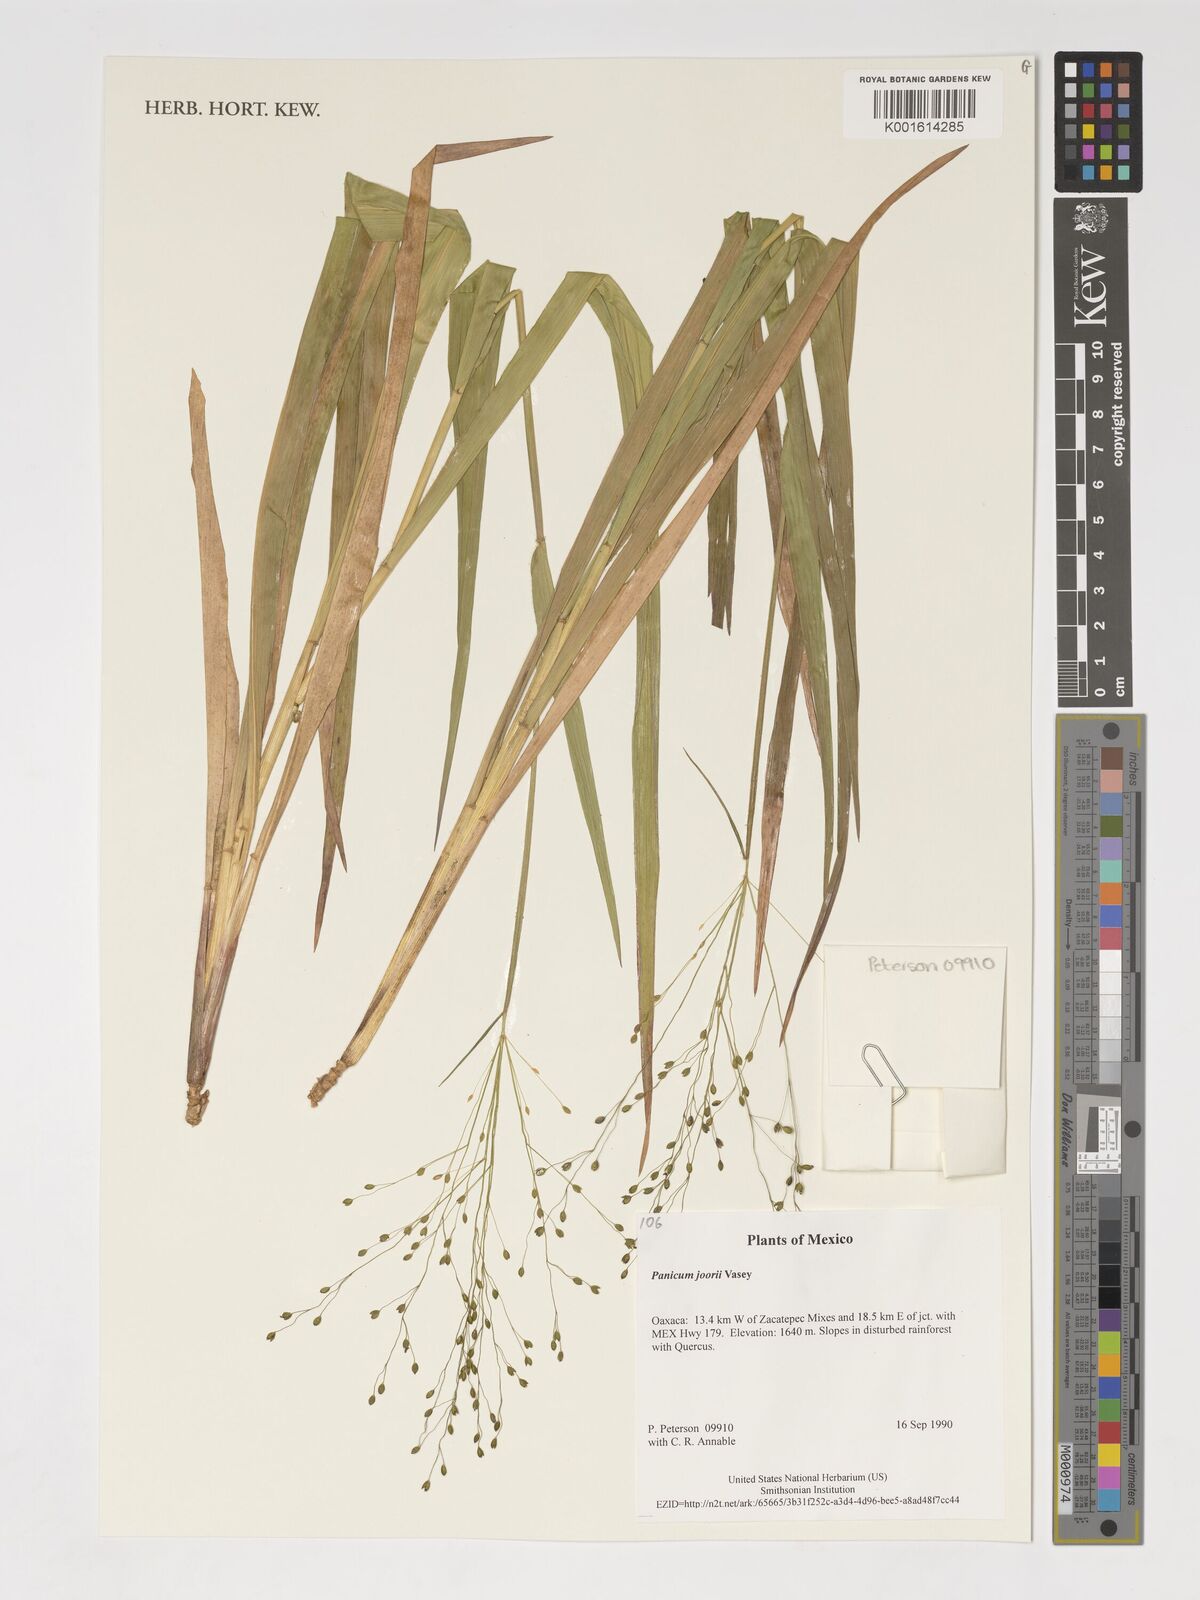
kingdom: Plantae
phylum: Tracheophyta
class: Liliopsida
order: Poales
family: Poaceae
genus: Dichanthelium
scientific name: Dichanthelium commutatum
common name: Variable witchgrass
